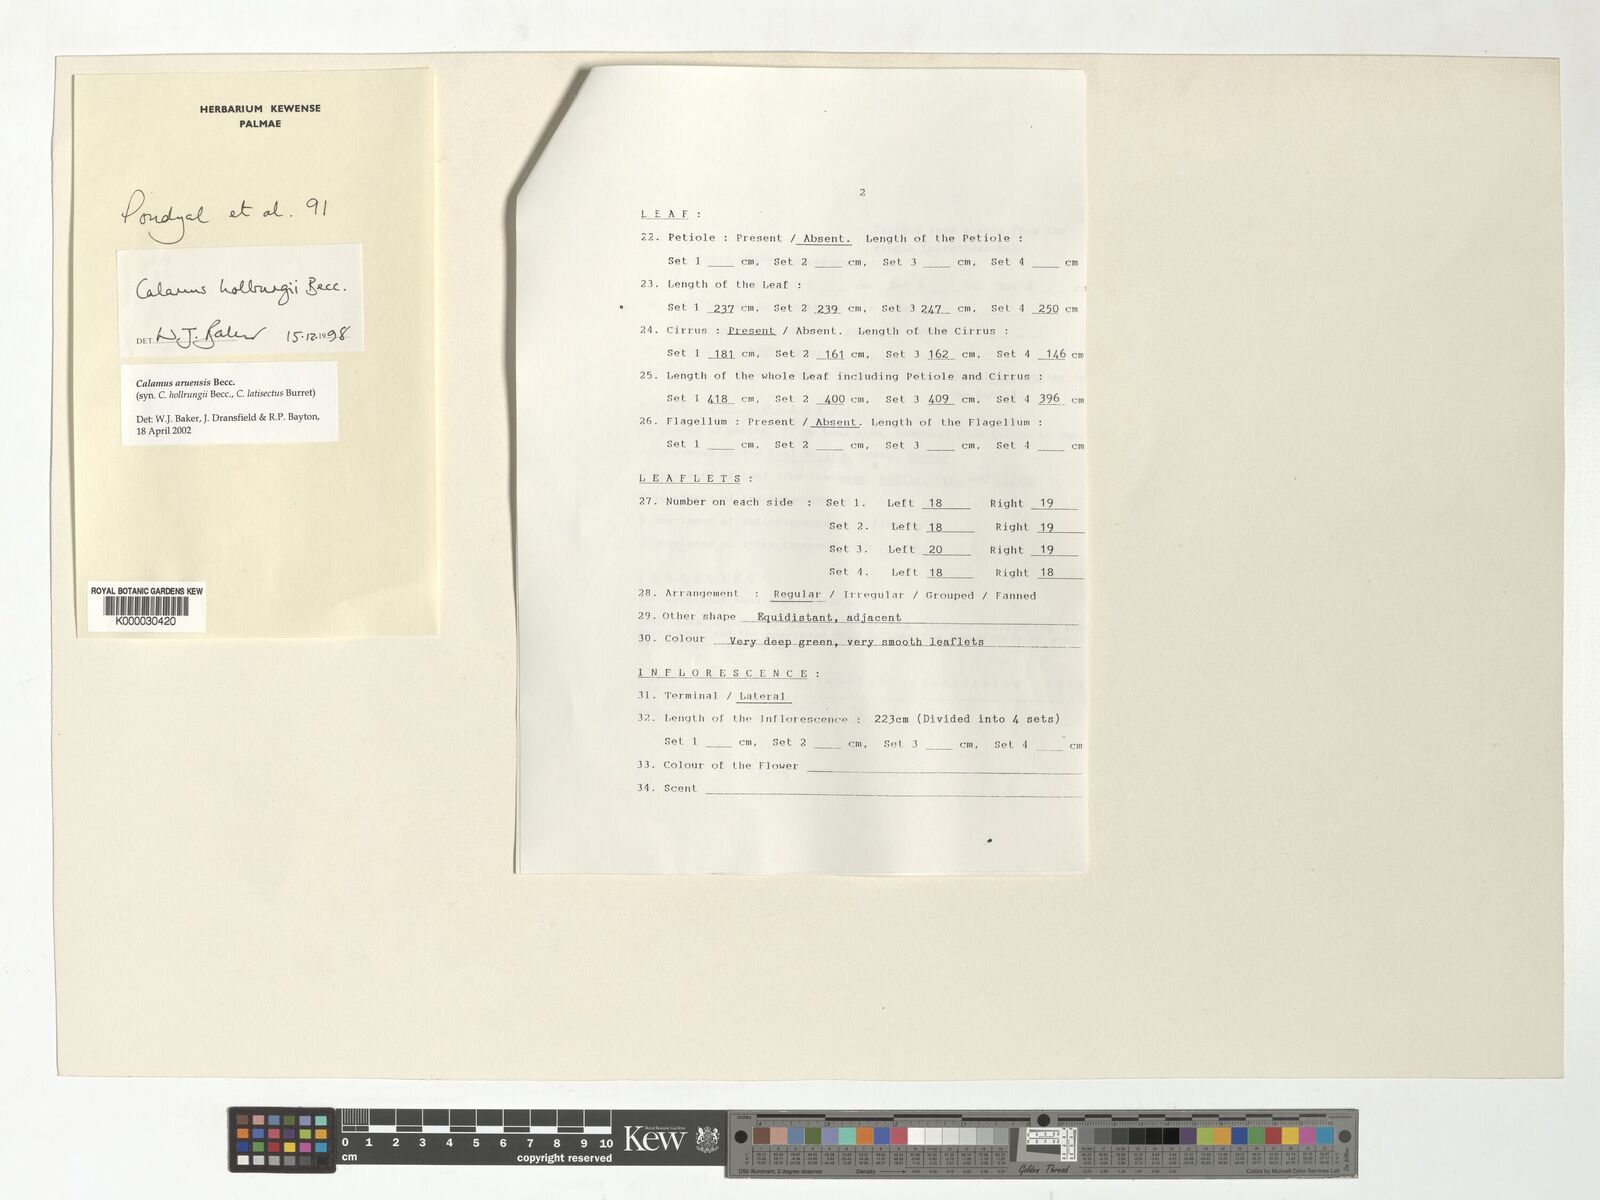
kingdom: Plantae
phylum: Tracheophyta
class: Liliopsida
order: Arecales
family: Arecaceae
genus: Calamus
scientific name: Calamus aruensis
